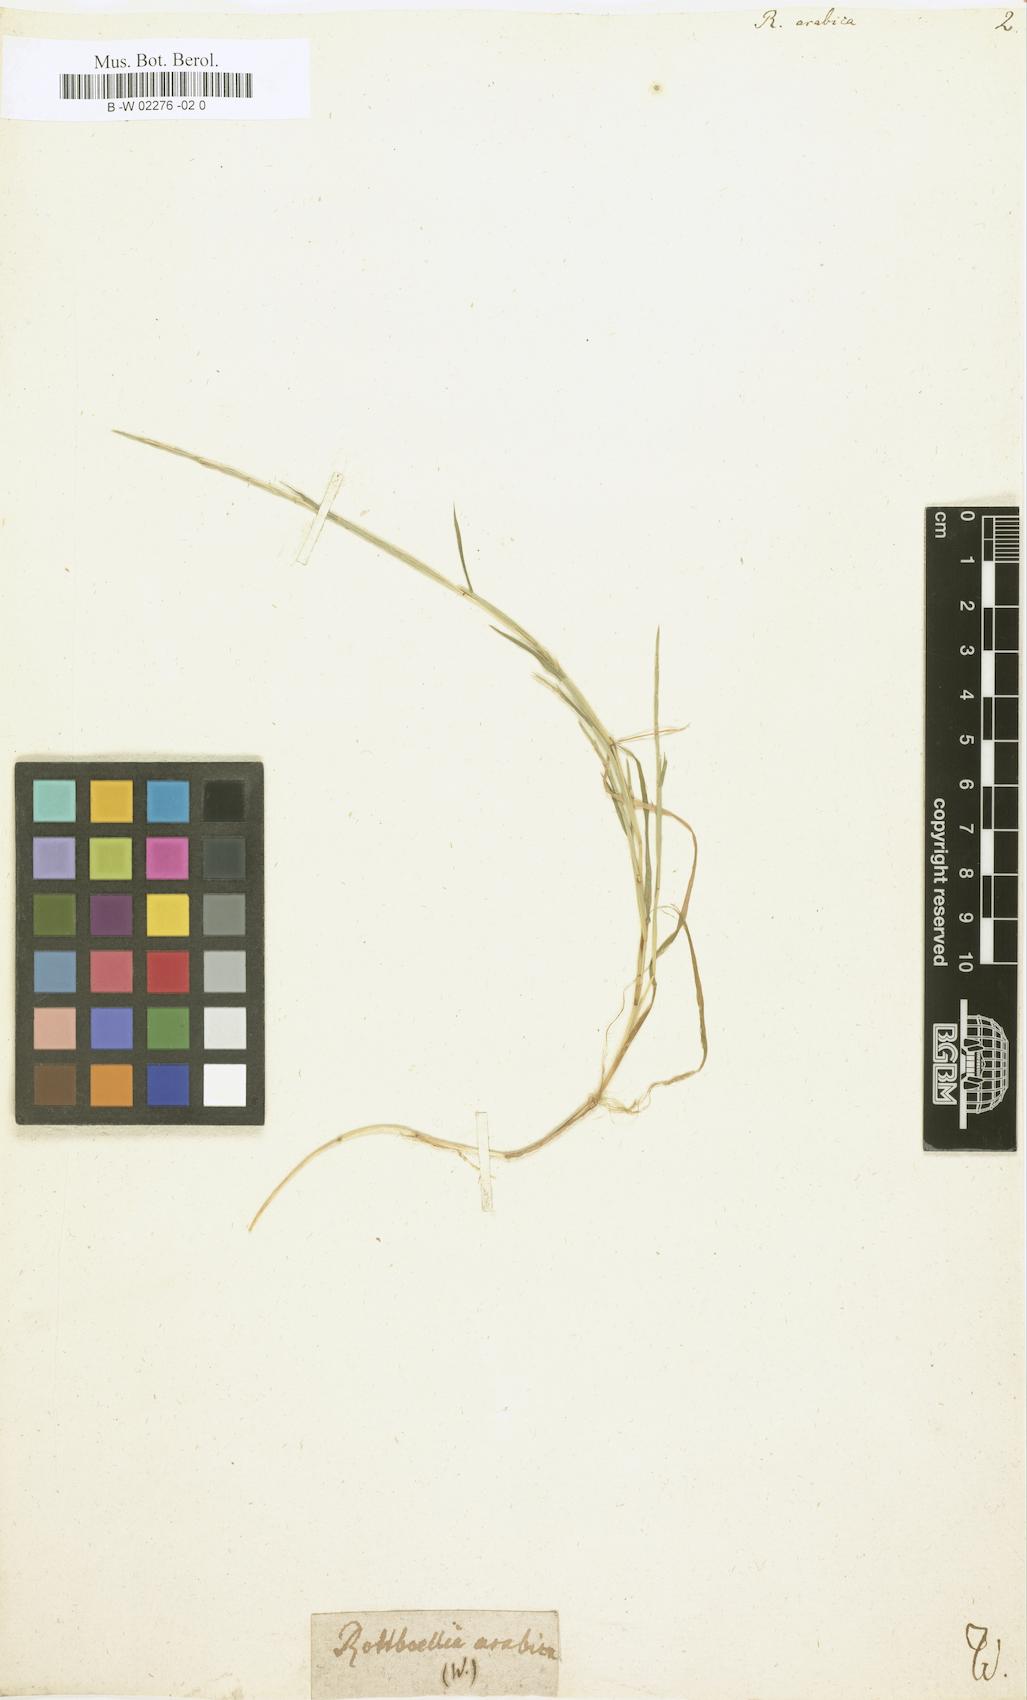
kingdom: Plantae
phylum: Tracheophyta
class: Liliopsida
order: Poales
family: Poaceae
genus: Parapholis
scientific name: Parapholis filiformis
